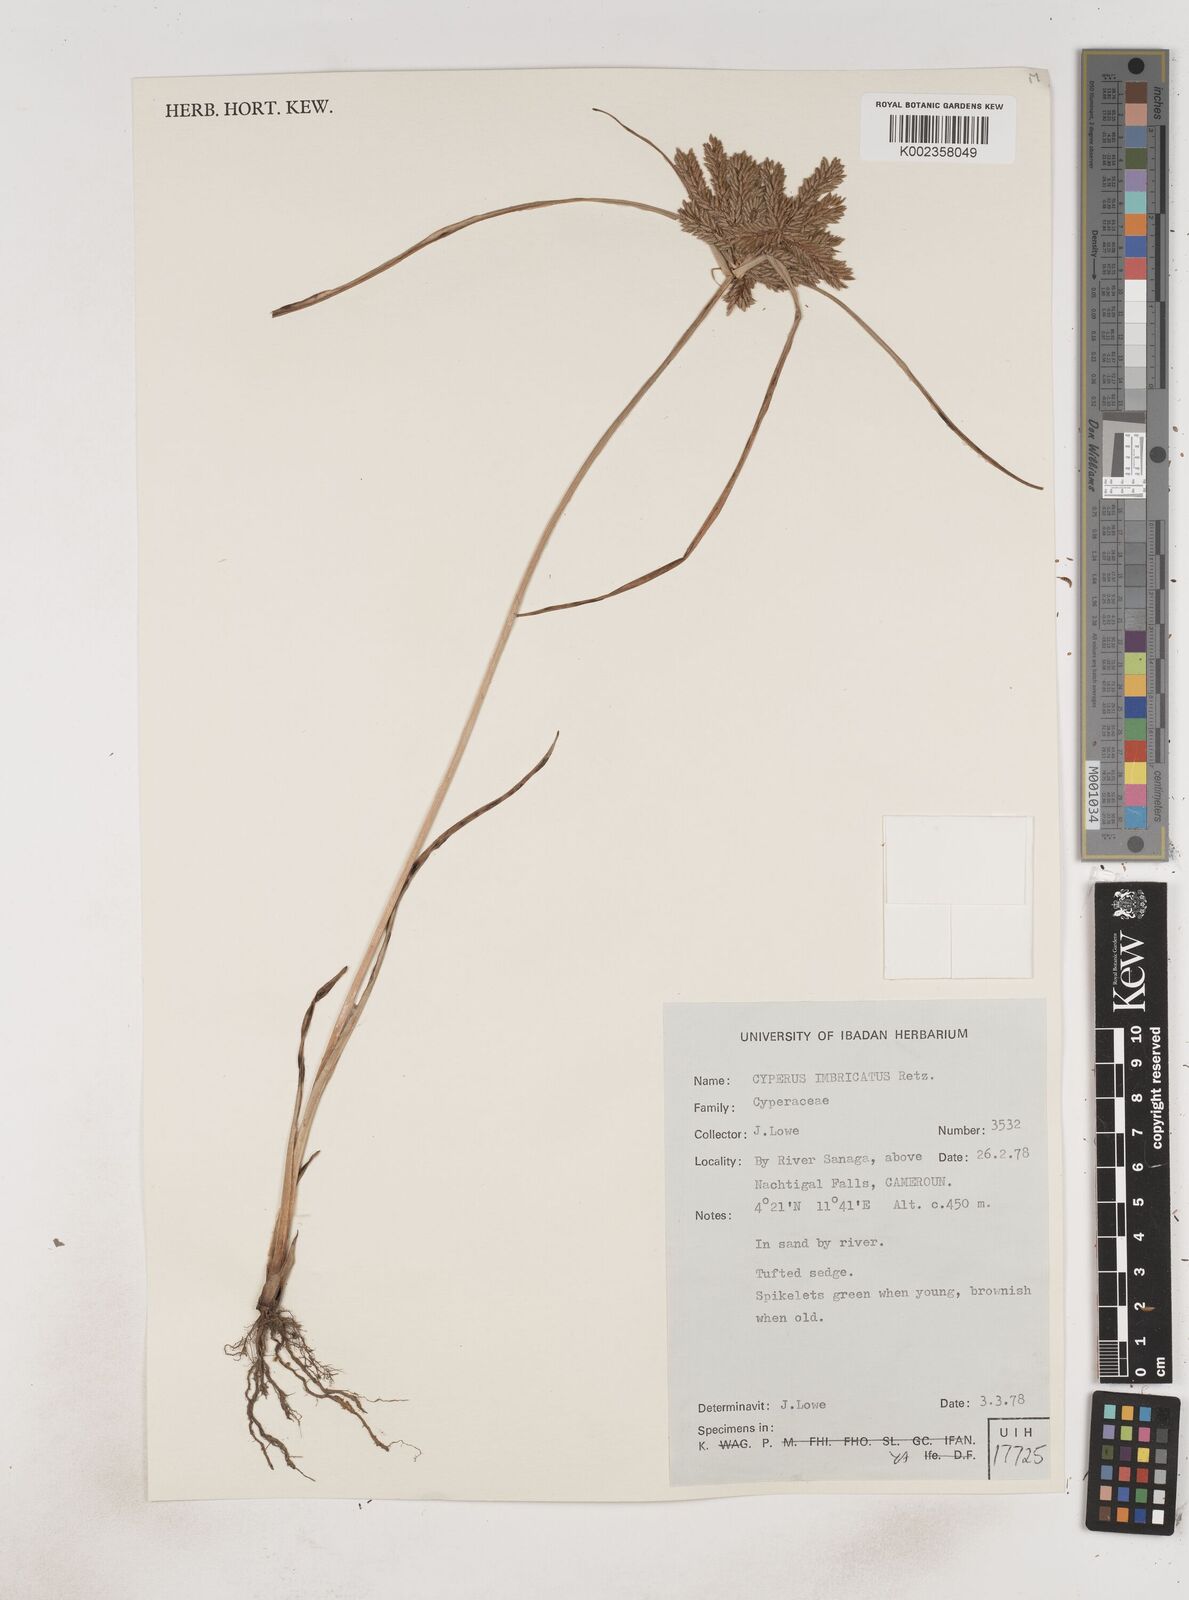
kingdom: Plantae
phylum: Tracheophyta
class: Liliopsida
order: Poales
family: Cyperaceae
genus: Cyperus
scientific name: Cyperus imbricatus
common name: Shingle flatsedge
